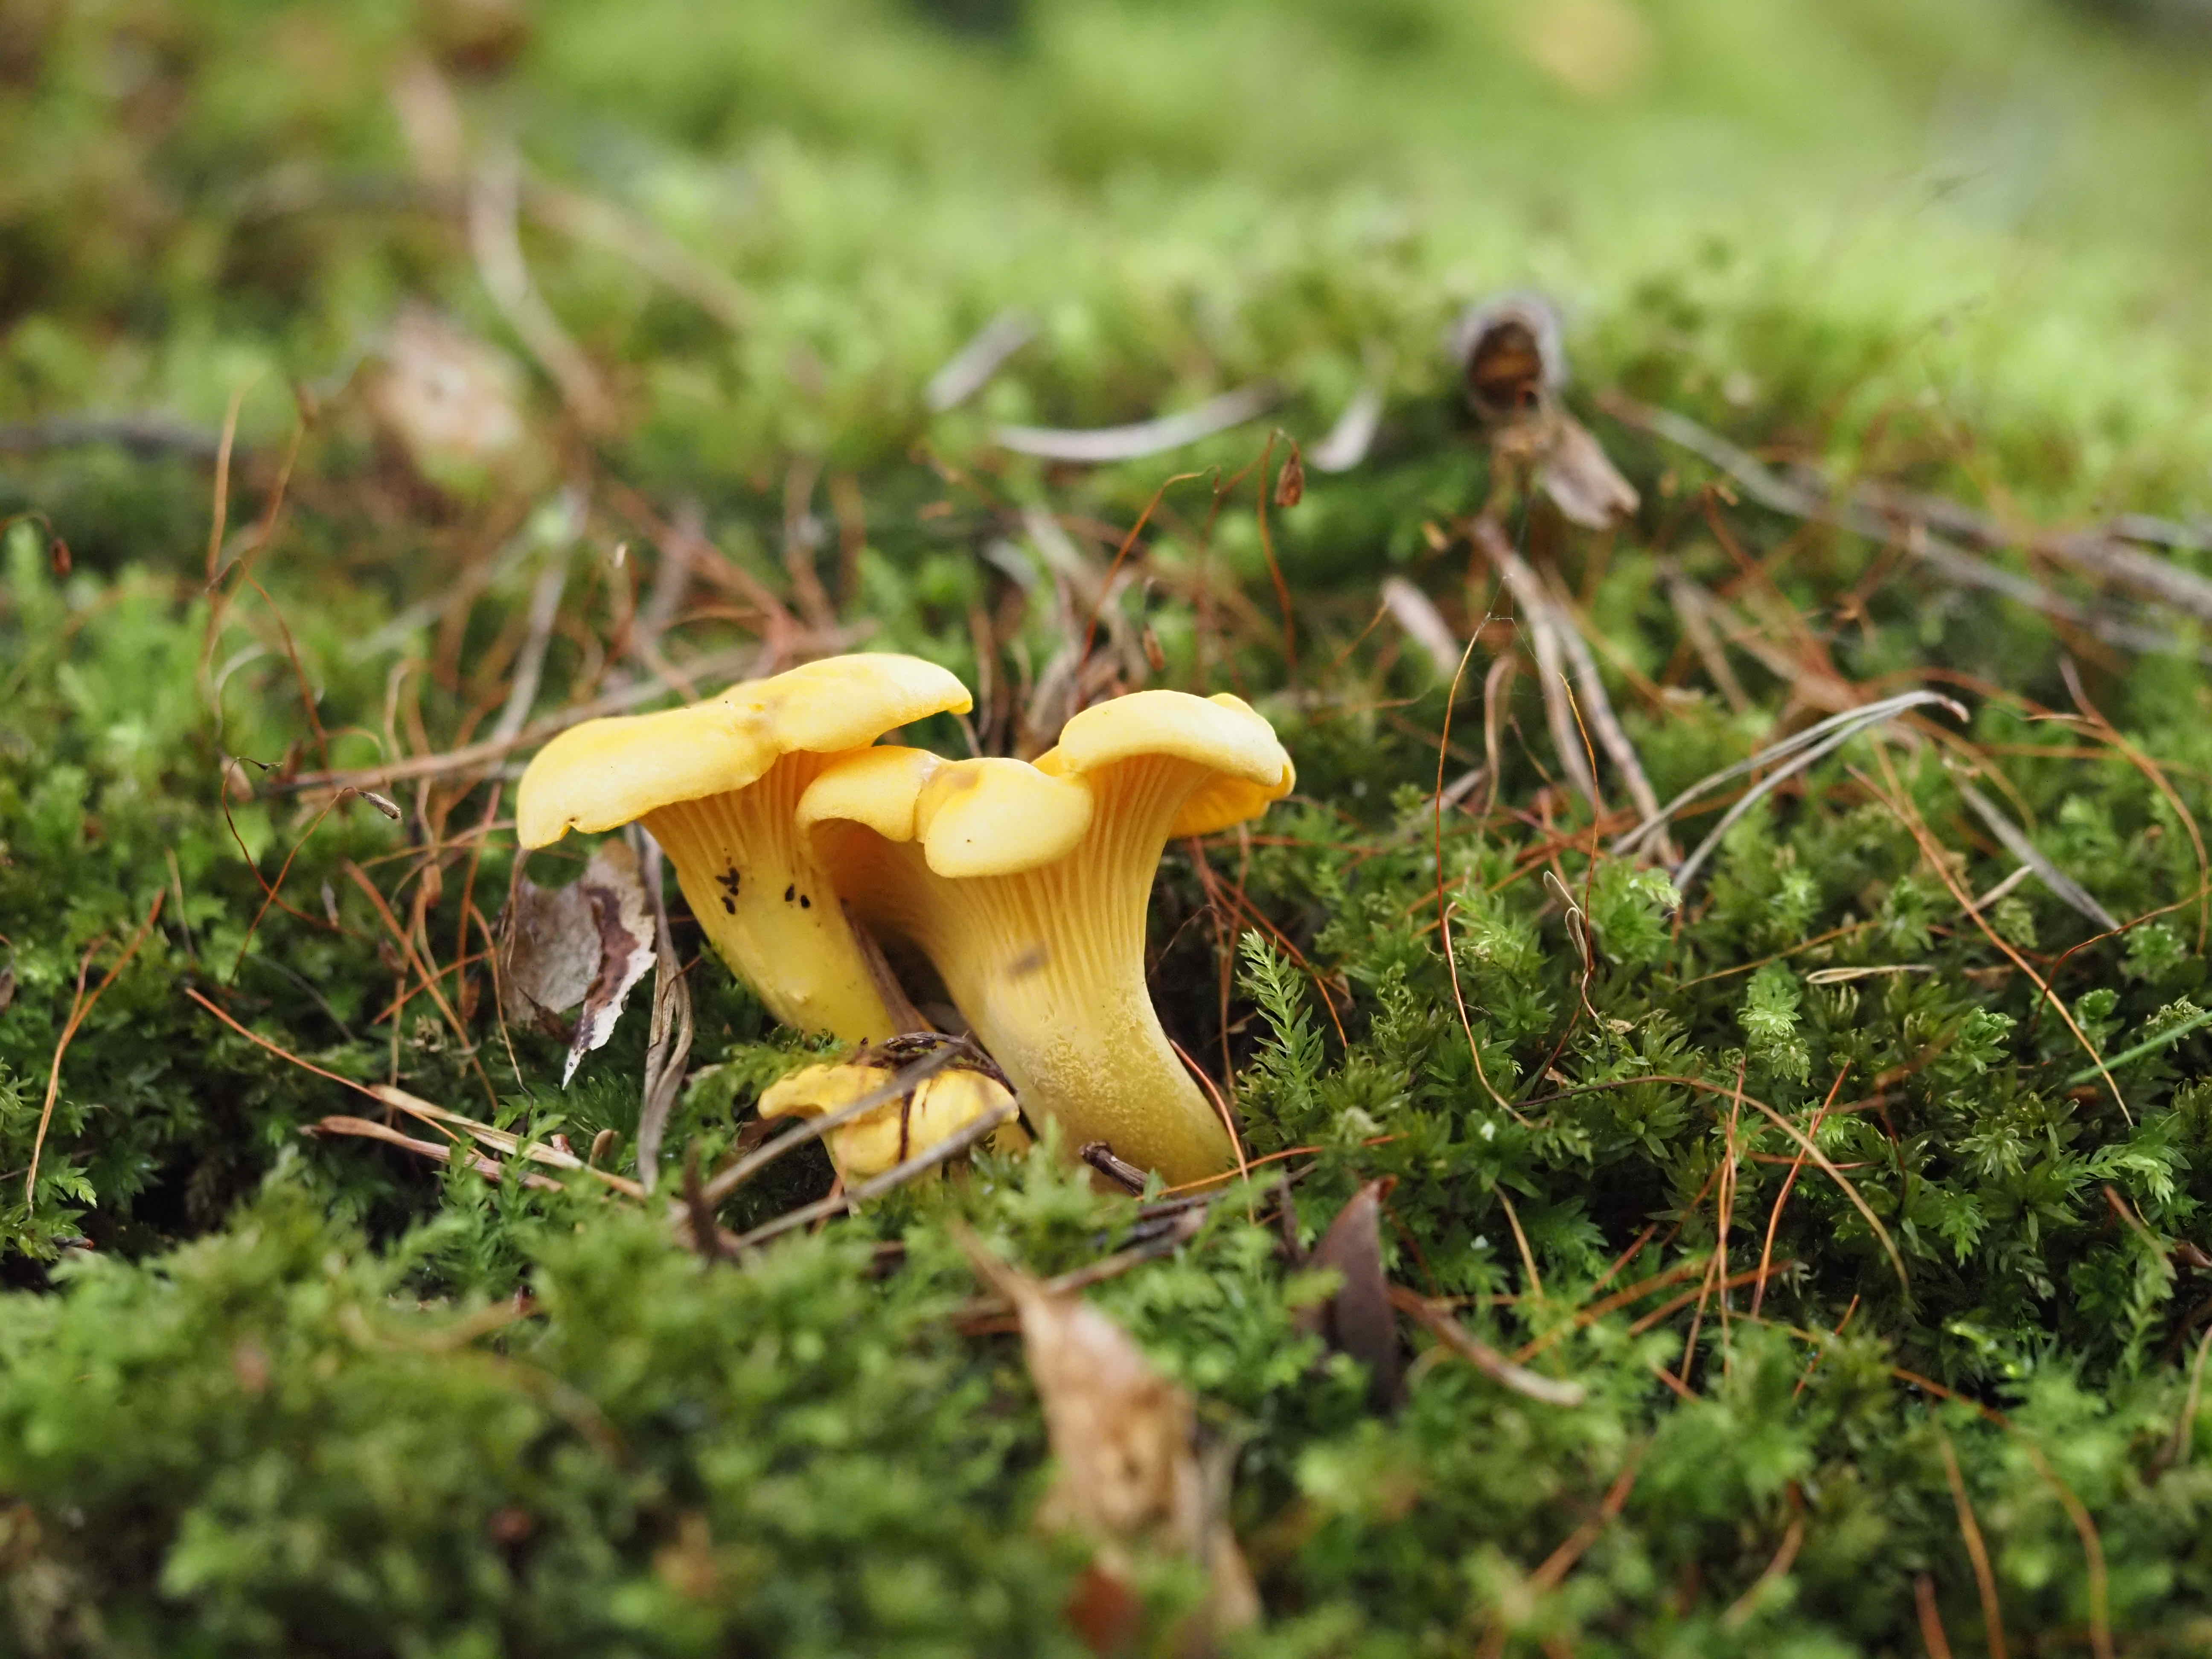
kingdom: Fungi
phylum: Basidiomycota
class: Agaricomycetes
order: Cantharellales
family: Hydnaceae
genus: Cantharellus
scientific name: Cantharellus cibarius
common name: almindelig kantarel
